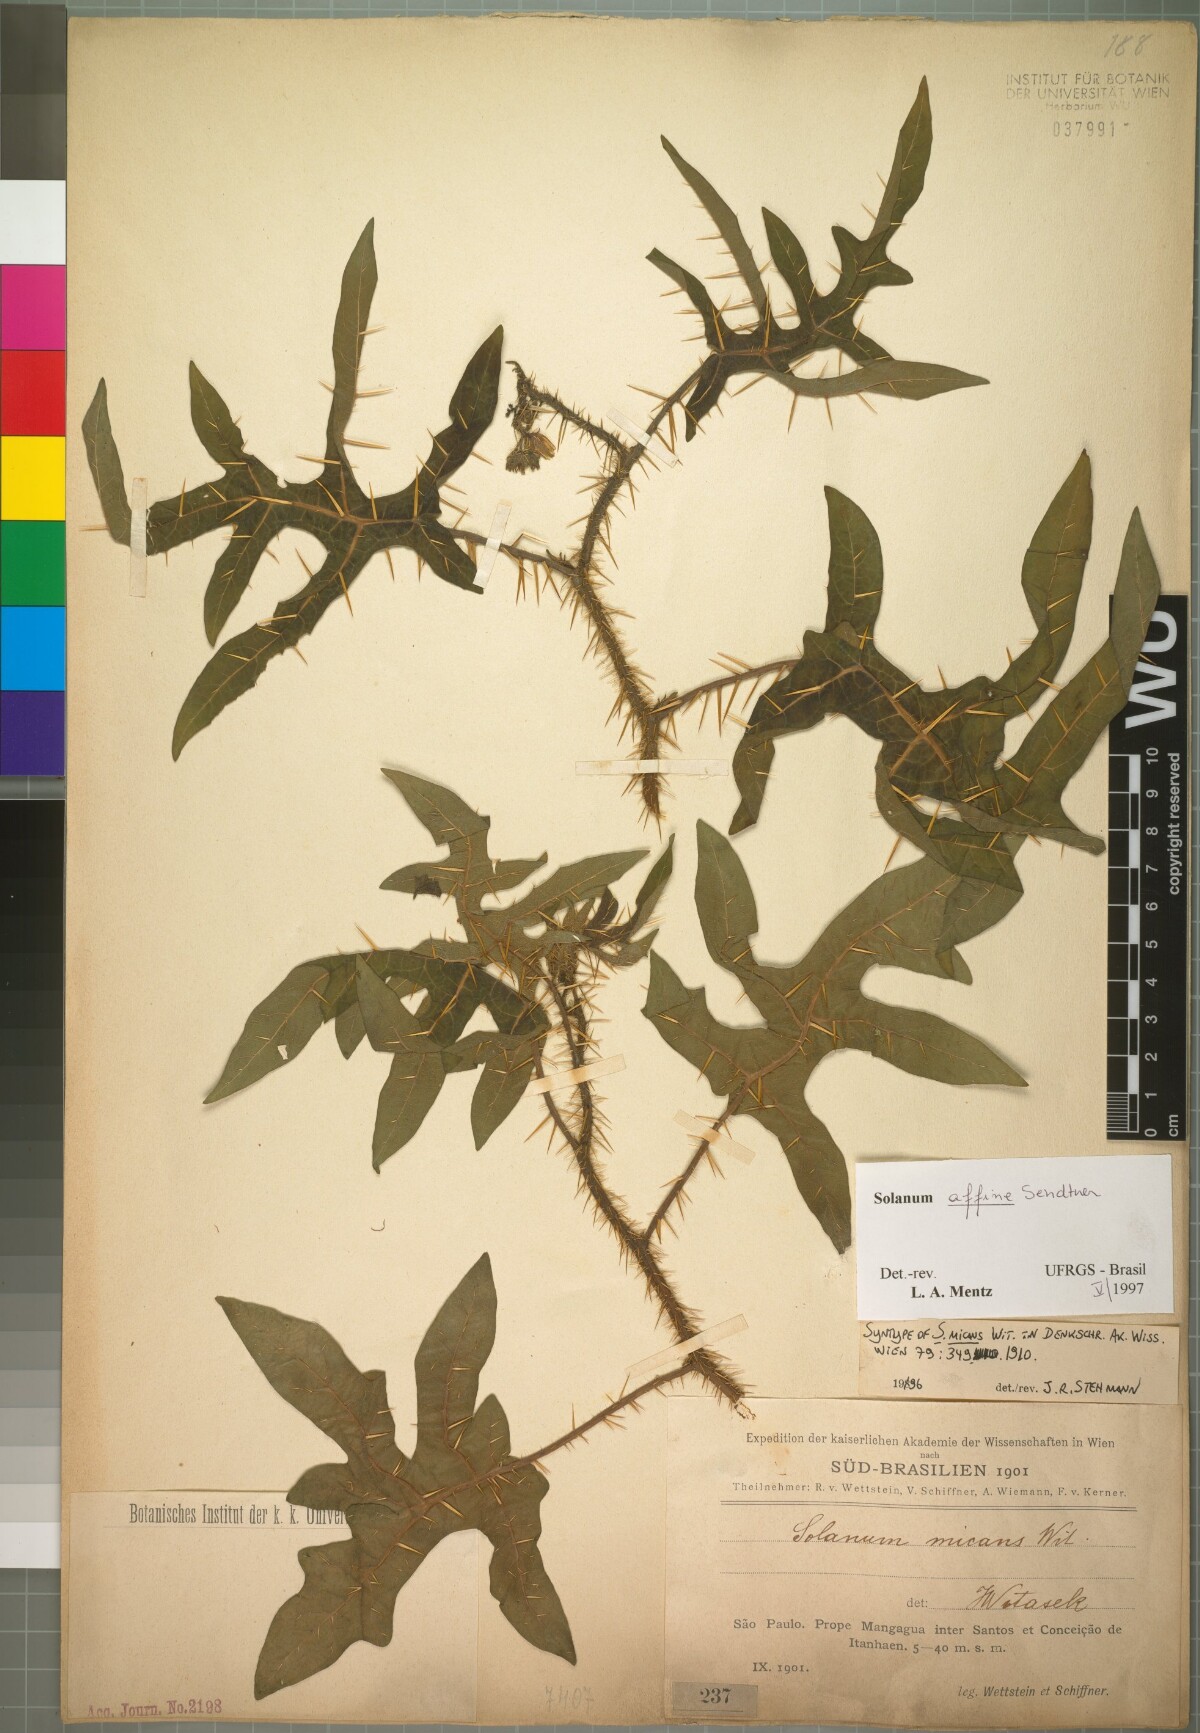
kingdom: Plantae
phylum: Tracheophyta
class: Magnoliopsida
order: Solanales
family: Solanaceae
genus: Solanum
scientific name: Solanum affine
